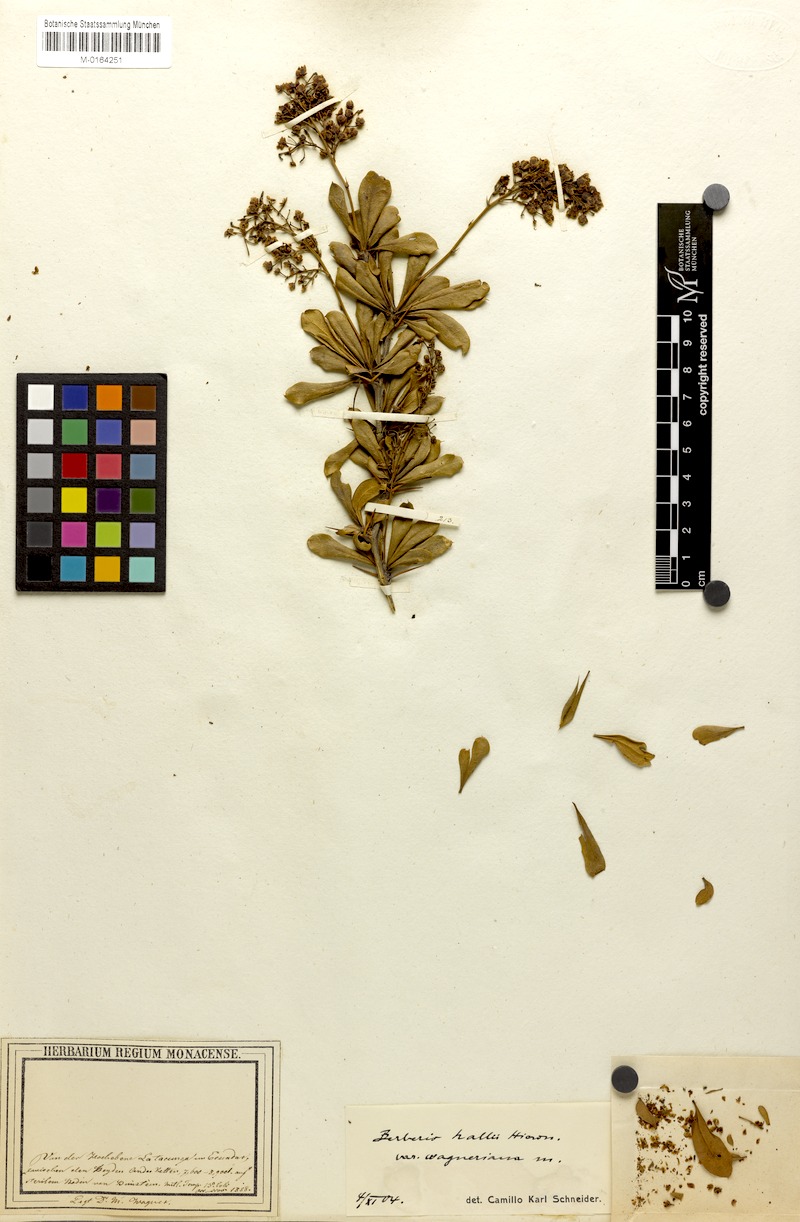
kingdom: Plantae
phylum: Tracheophyta
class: Magnoliopsida
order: Ranunculales
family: Berberidaceae
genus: Berberis
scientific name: Berberis hallii
